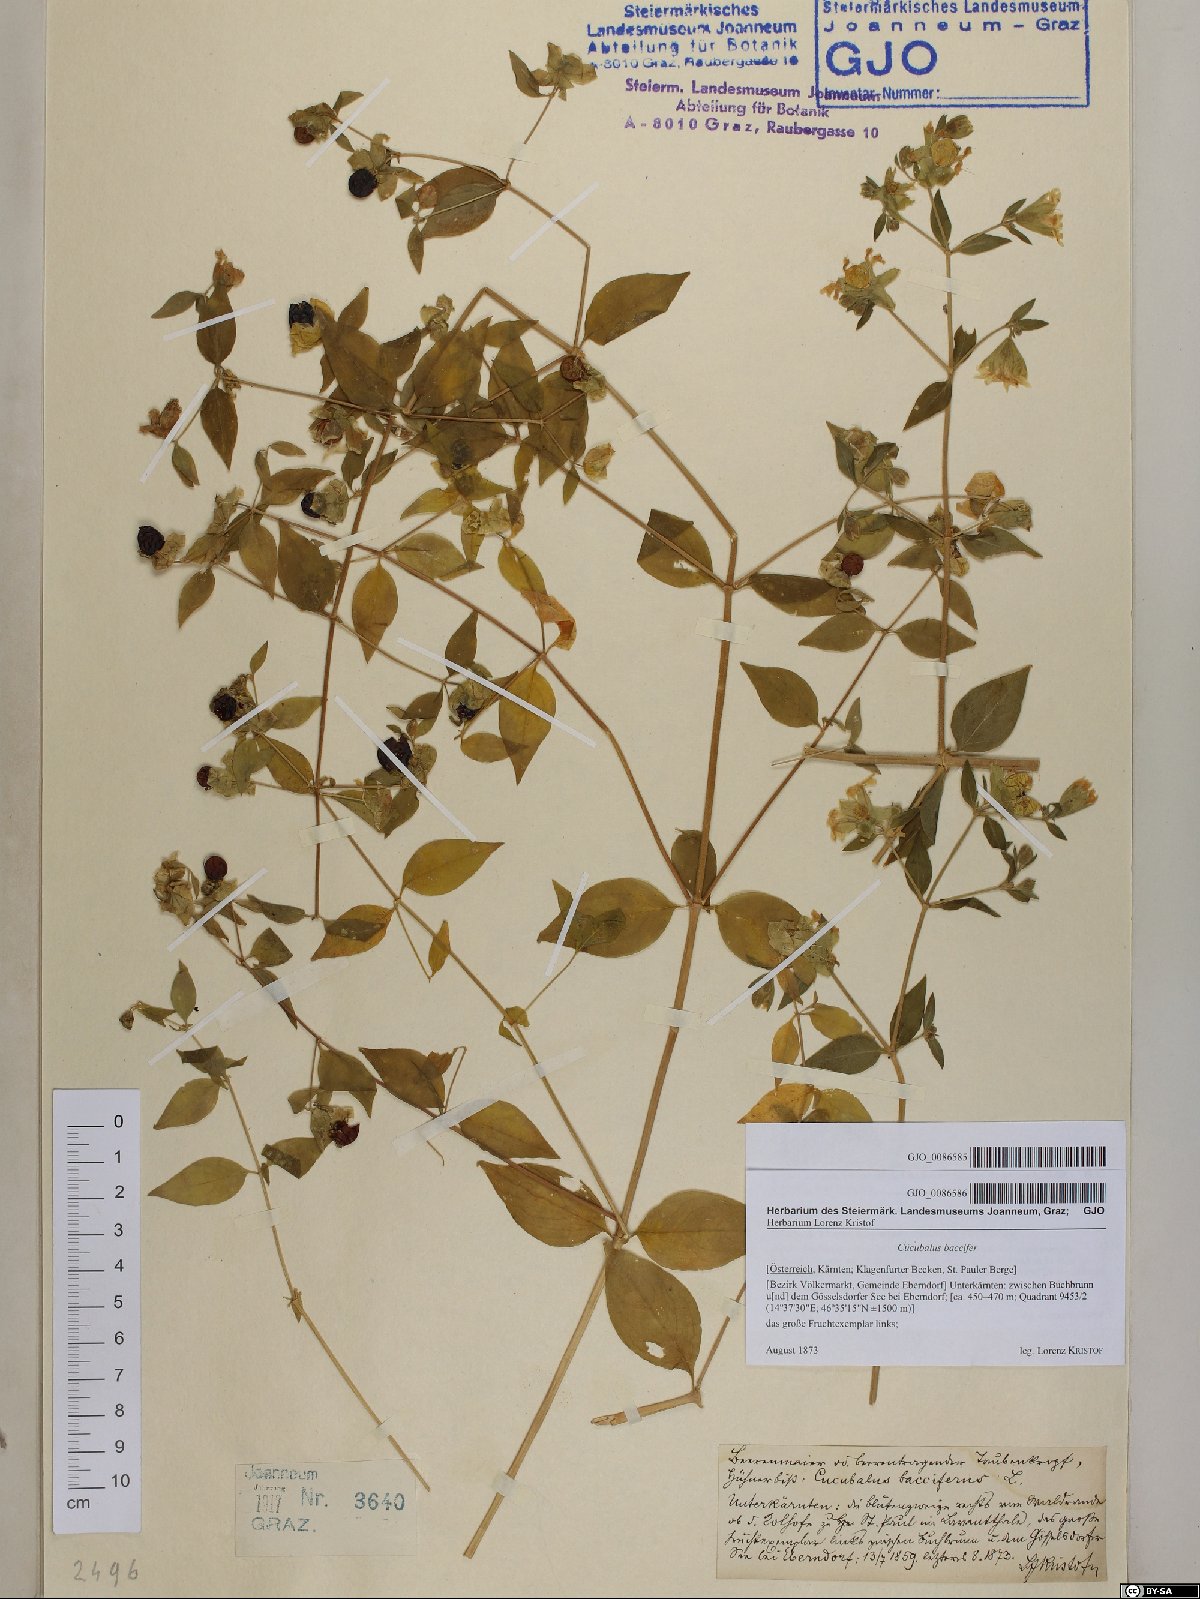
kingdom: Plantae
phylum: Tracheophyta
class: Magnoliopsida
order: Caryophyllales
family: Caryophyllaceae
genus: Silene
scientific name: Silene baccifera
